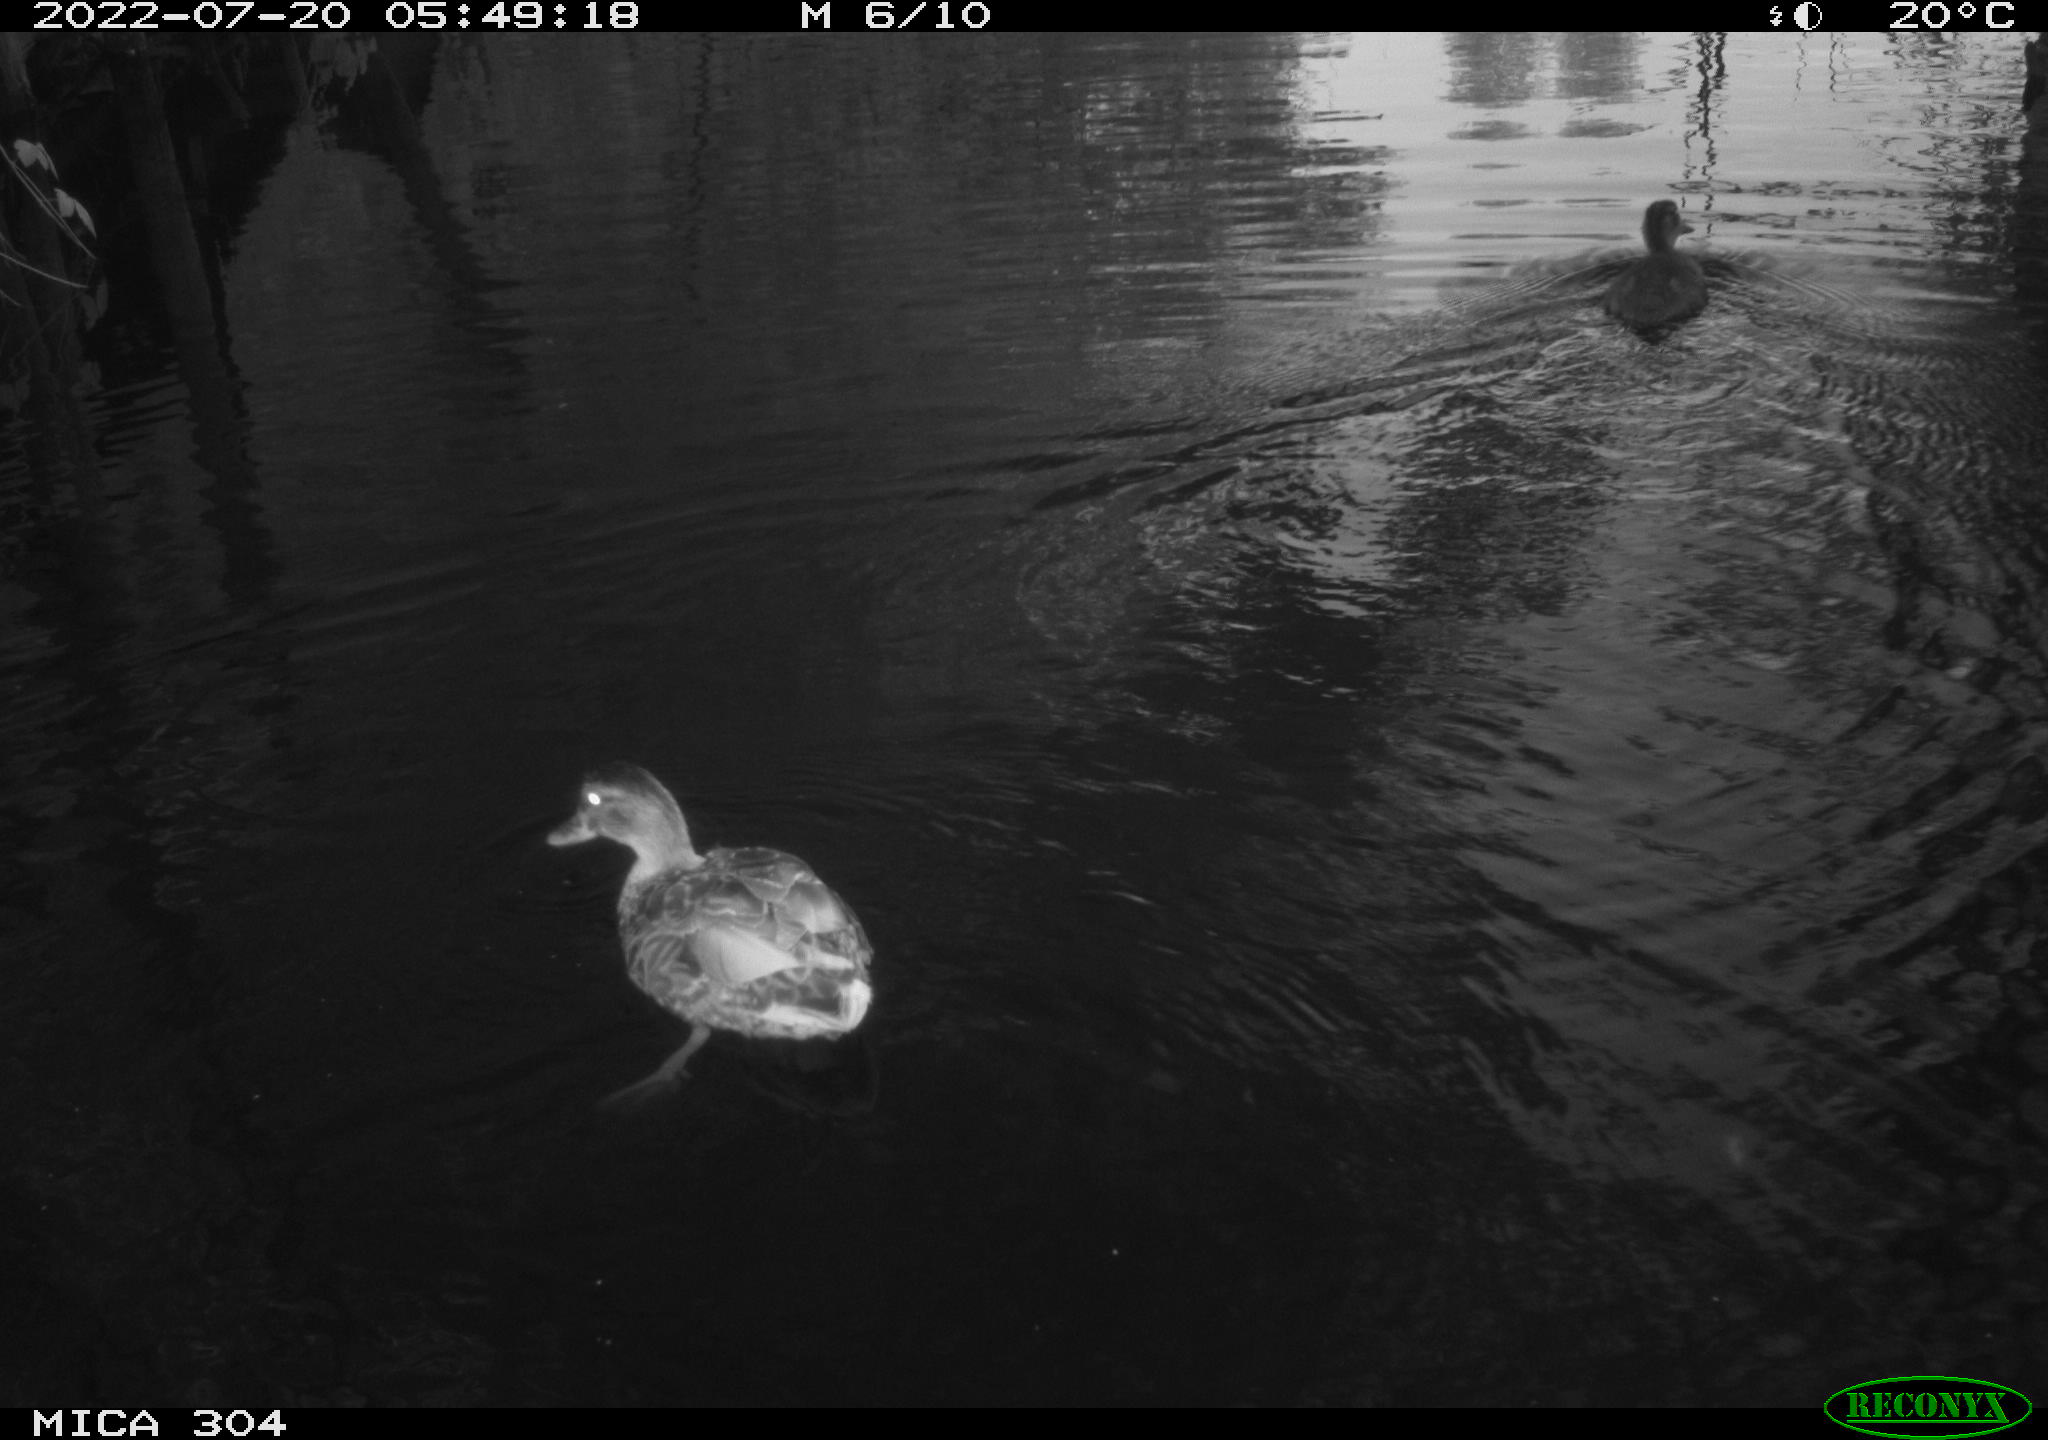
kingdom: Animalia
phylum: Chordata
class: Aves
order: Anseriformes
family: Anatidae
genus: Mareca
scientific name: Mareca strepera
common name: Gadwall
